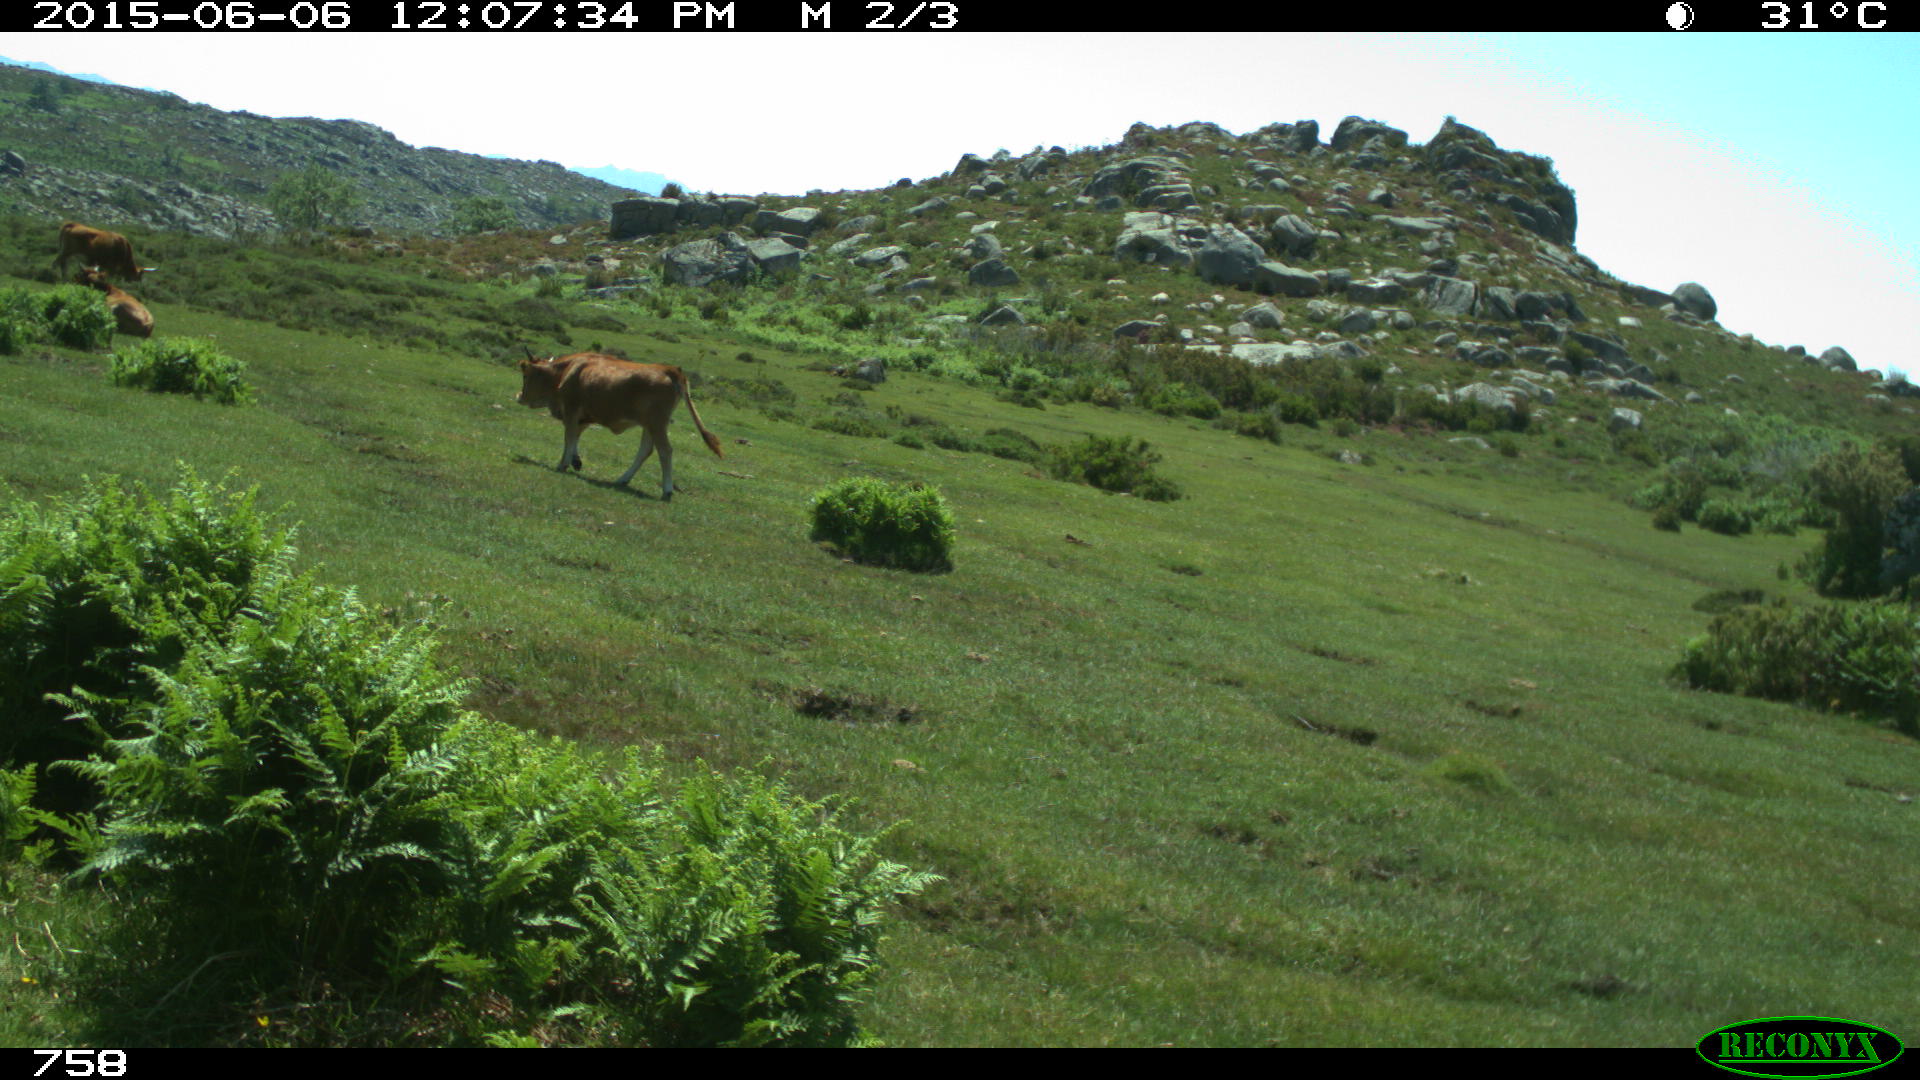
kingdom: Animalia
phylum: Chordata
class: Mammalia
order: Artiodactyla
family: Bovidae
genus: Bos
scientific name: Bos taurus
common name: Domesticated cattle
